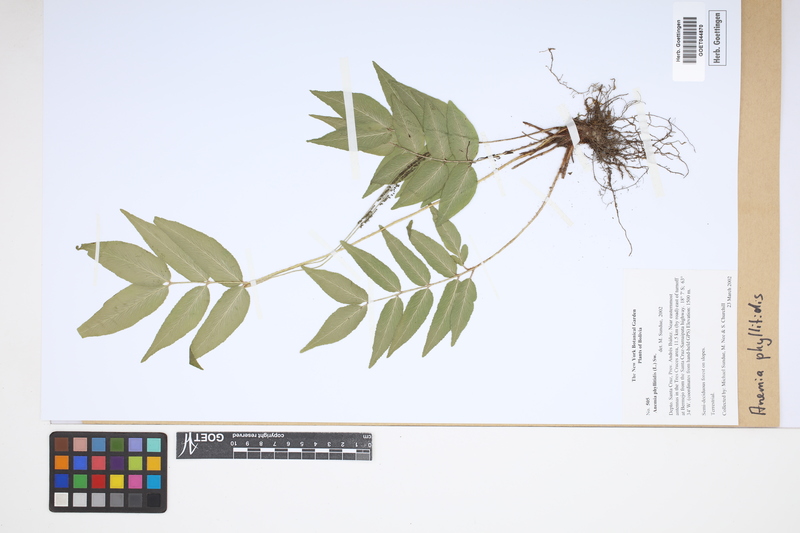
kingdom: Plantae
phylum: Tracheophyta
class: Polypodiopsida
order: Schizaeales
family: Anemiaceae
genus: Anemia
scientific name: Anemia phyllitidis
